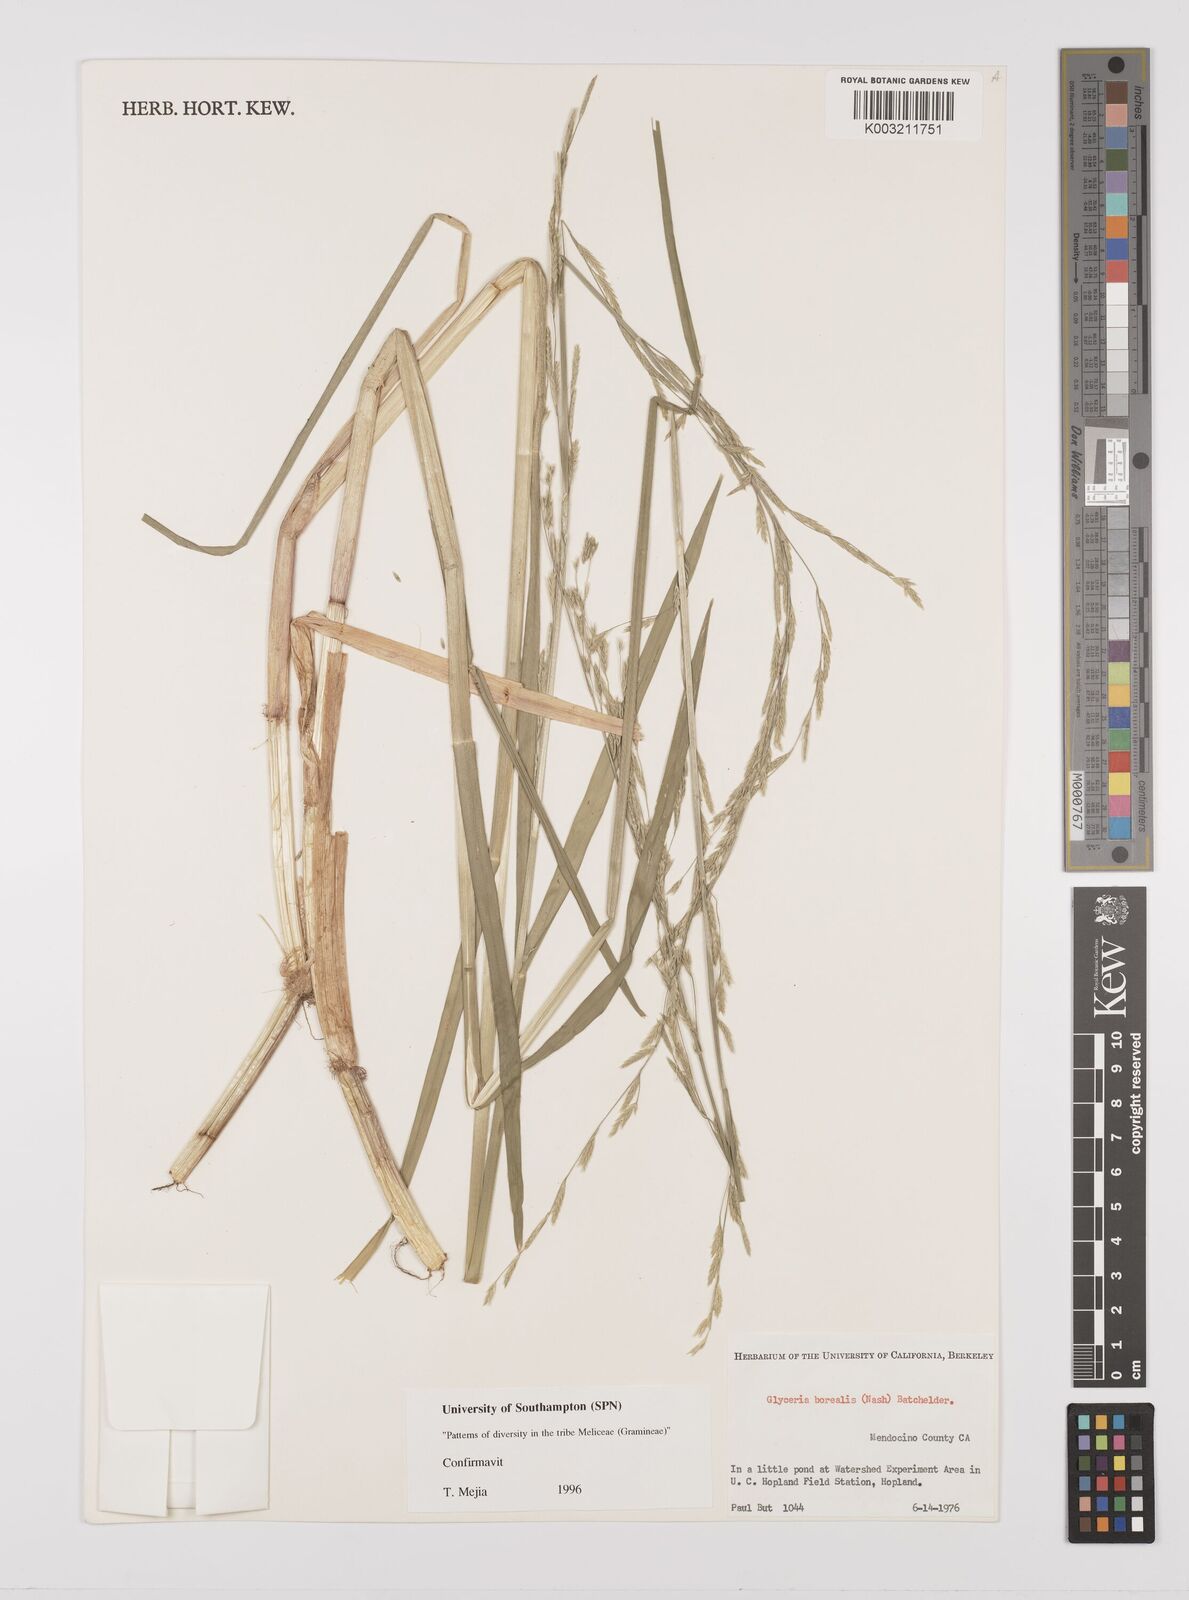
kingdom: Plantae
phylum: Tracheophyta
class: Liliopsida
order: Poales
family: Poaceae
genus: Glyceria
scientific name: Glyceria borealis
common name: Boreal glyceria
